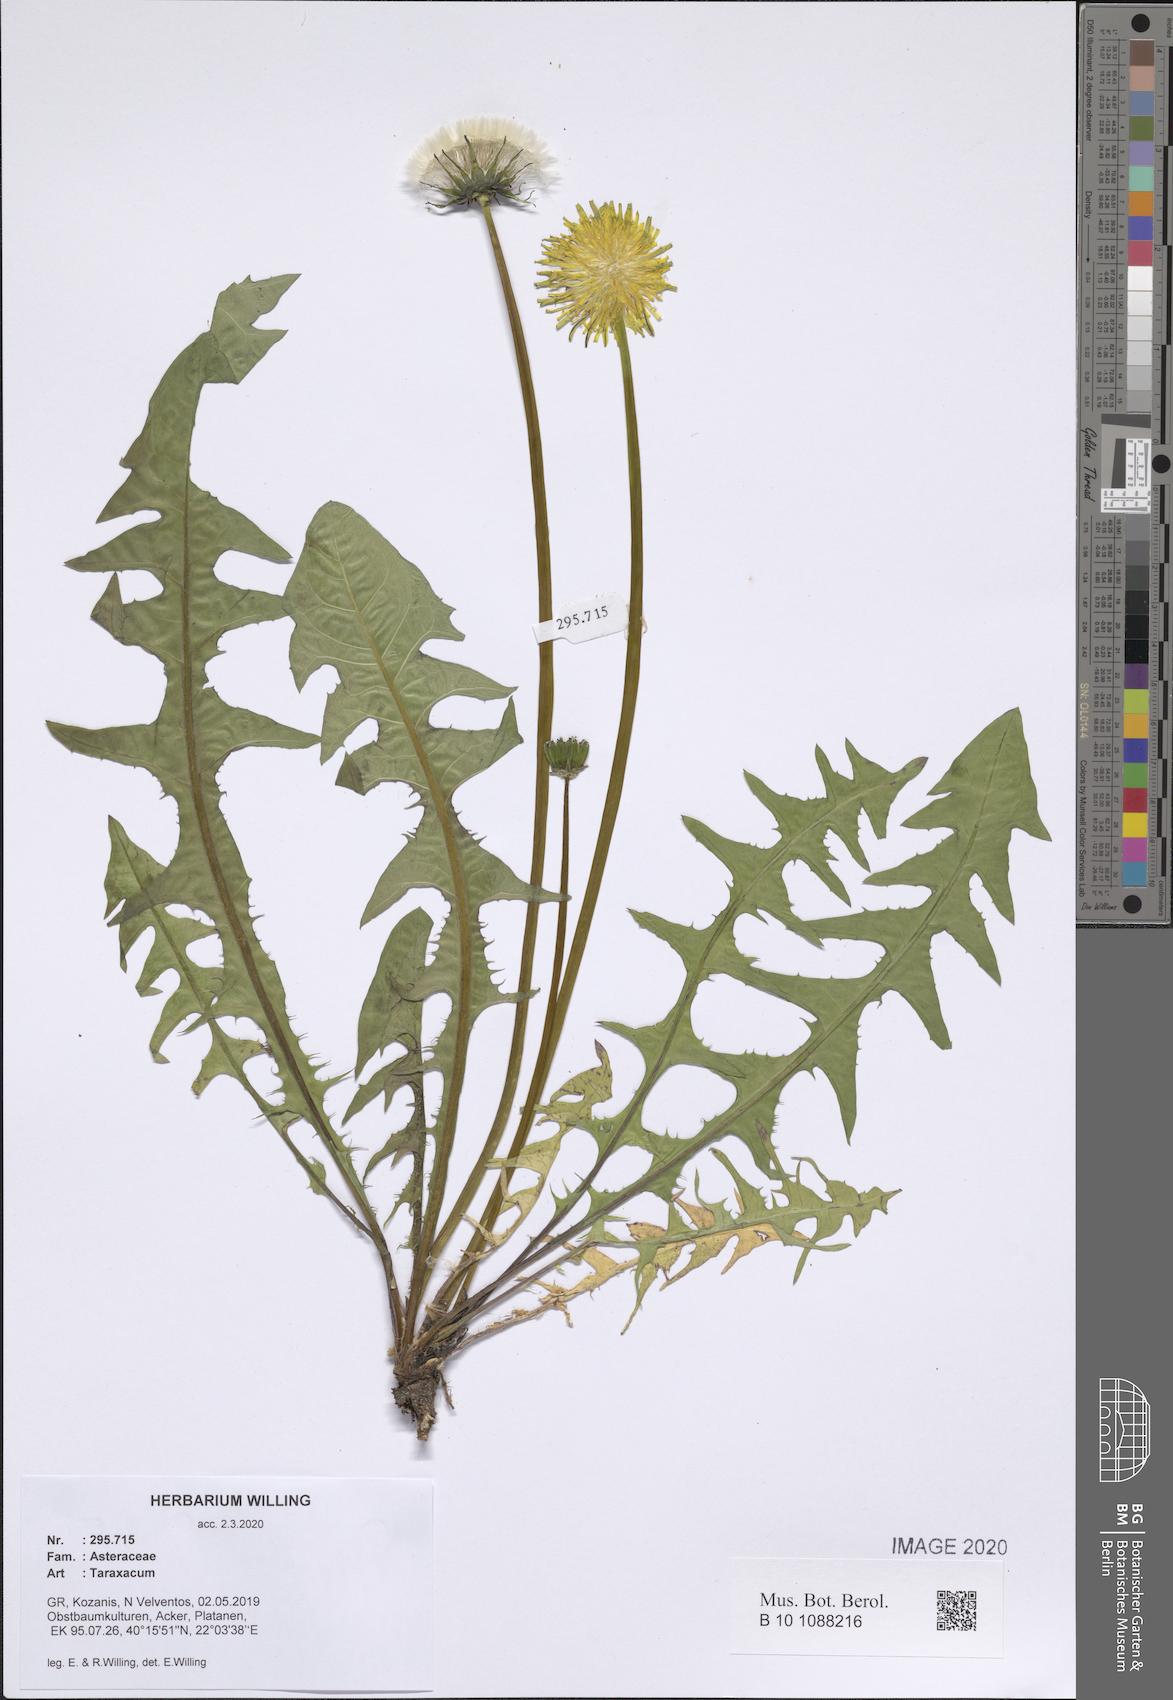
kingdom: Plantae
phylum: Tracheophyta
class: Magnoliopsida
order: Asterales
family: Asteraceae
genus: Taraxacum
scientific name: Taraxacum
